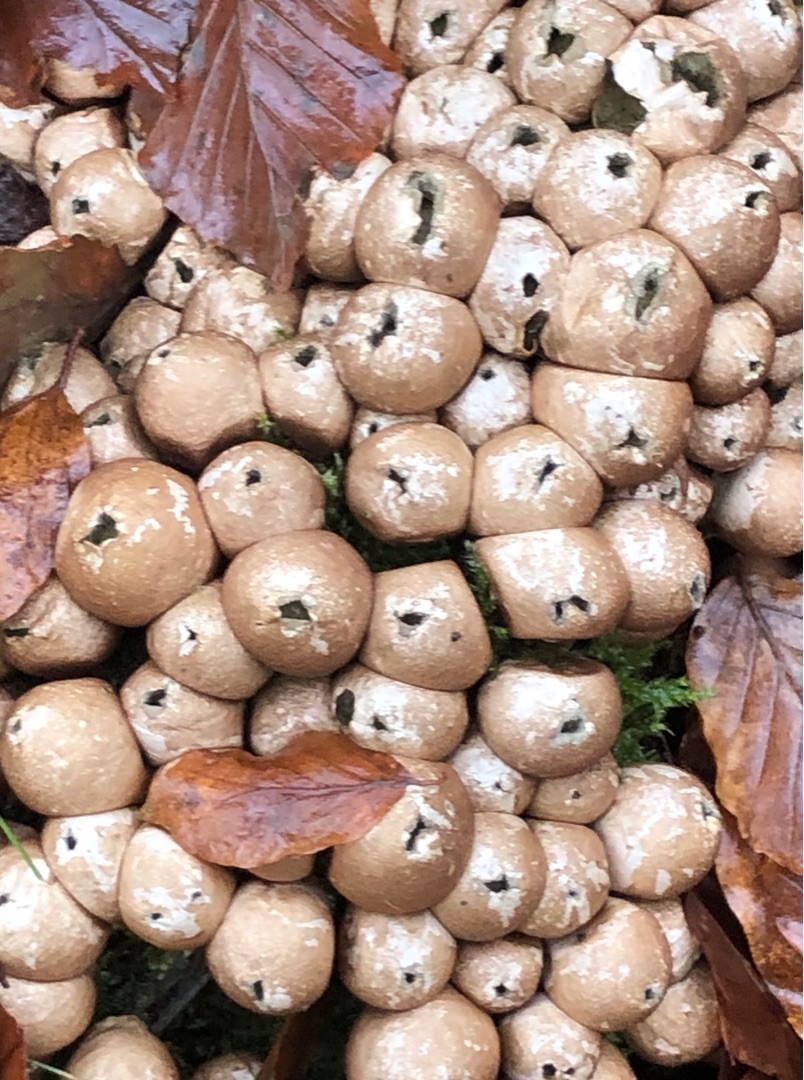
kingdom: Fungi
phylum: Basidiomycota
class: Agaricomycetes
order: Agaricales
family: Lycoperdaceae
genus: Apioperdon
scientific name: Apioperdon pyriforme
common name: Pære-støvbold
